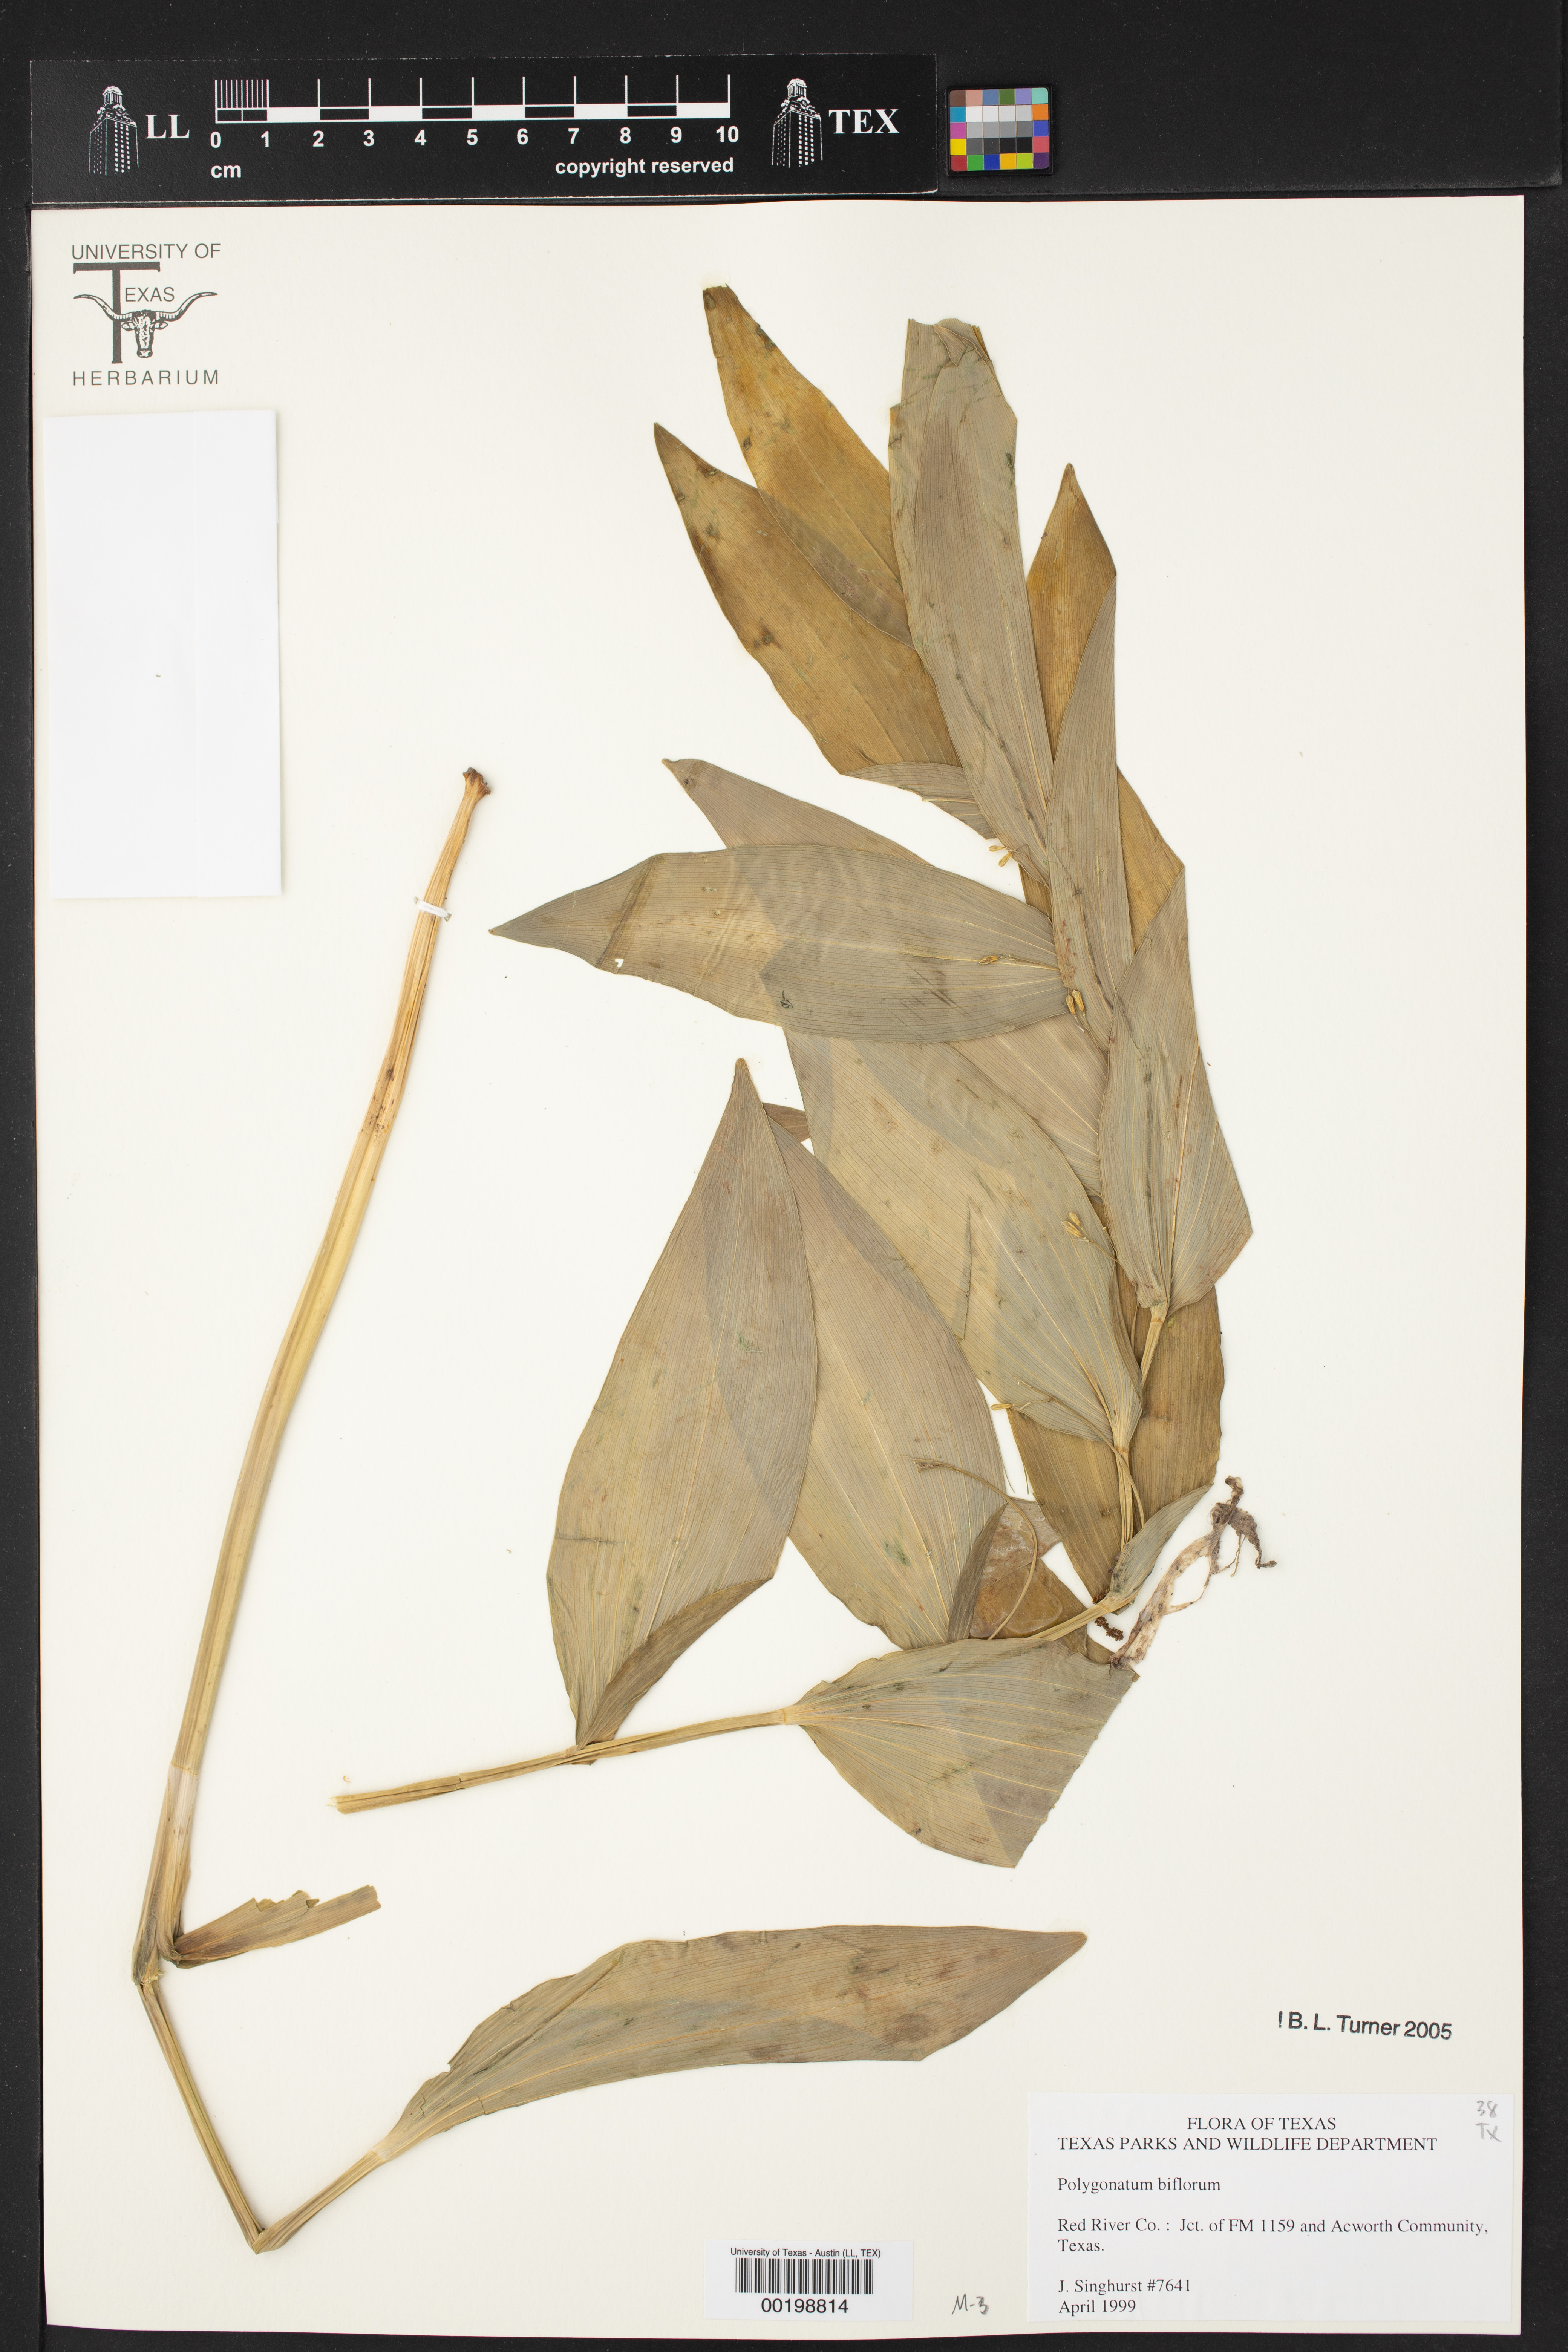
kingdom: Plantae
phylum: Tracheophyta
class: Liliopsida
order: Asparagales
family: Asparagaceae
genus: Polygonatum
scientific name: Polygonatum biflorum
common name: American solomon's-seal
